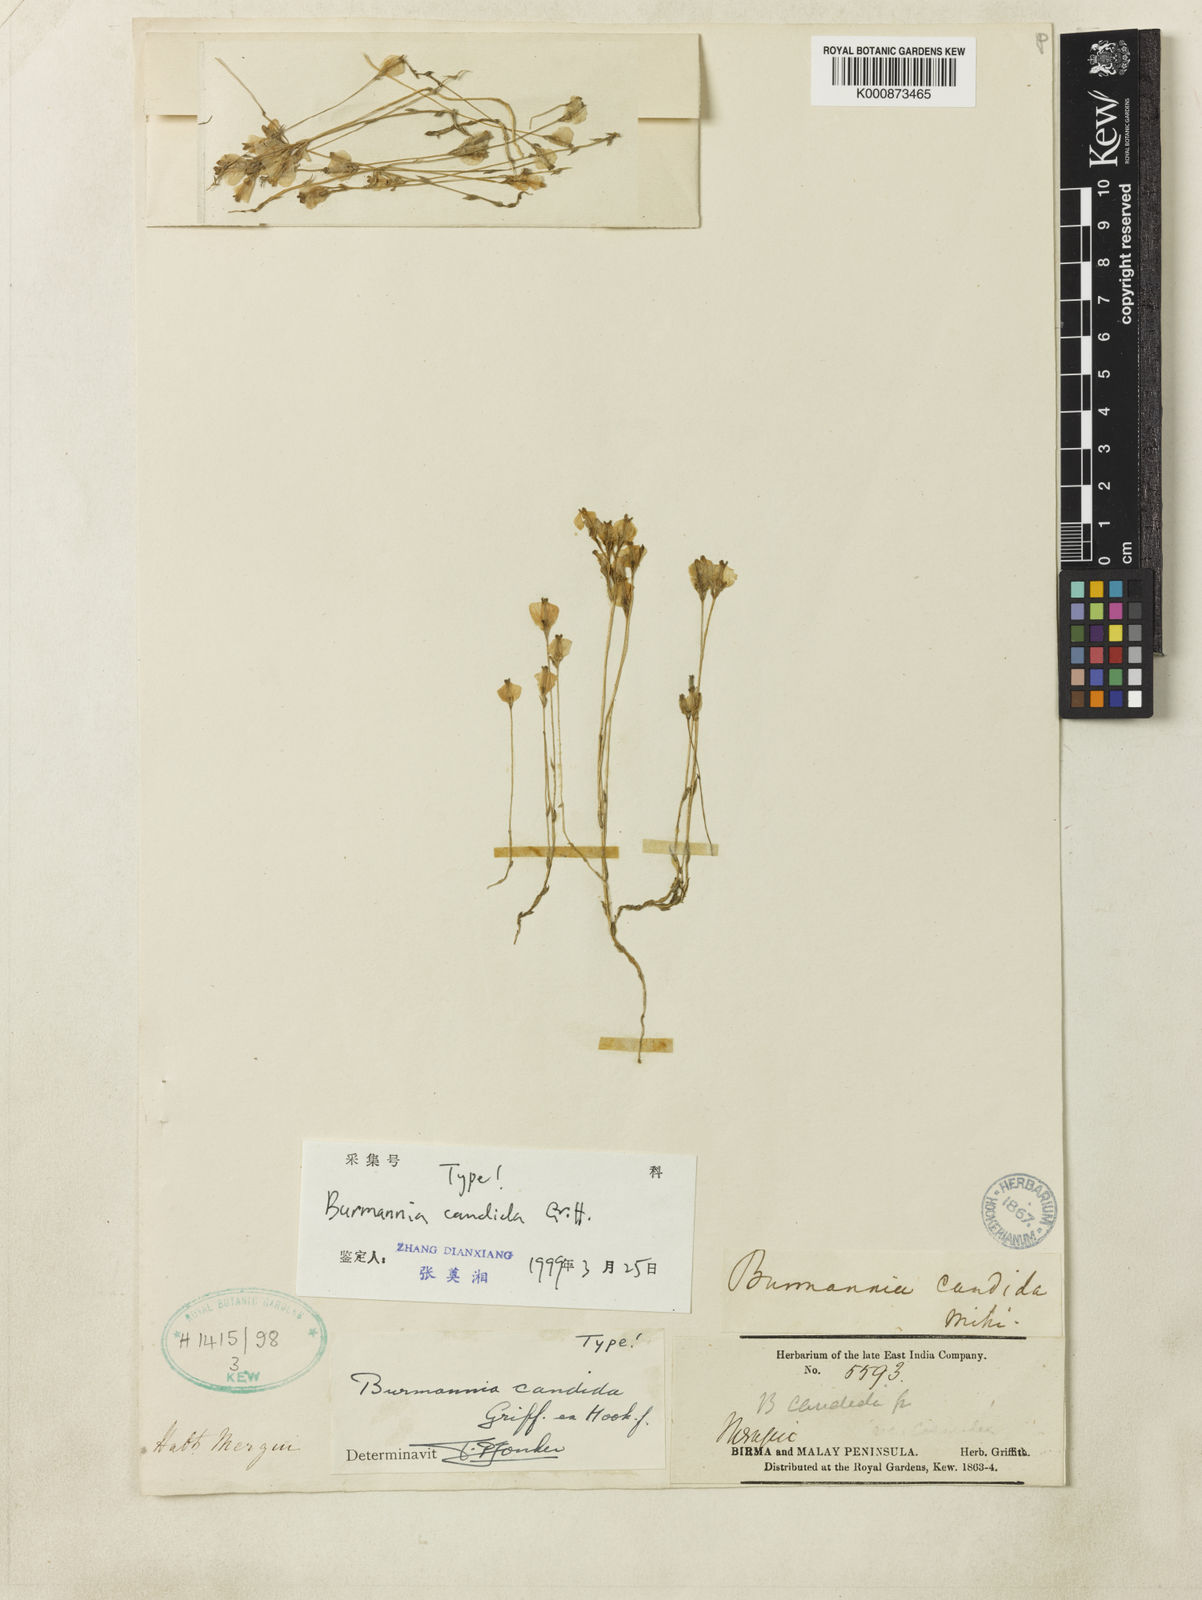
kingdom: Plantae
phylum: Tracheophyta
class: Liliopsida
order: Dioscoreales
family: Burmanniaceae
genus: Burmannia
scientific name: Burmannia candida
